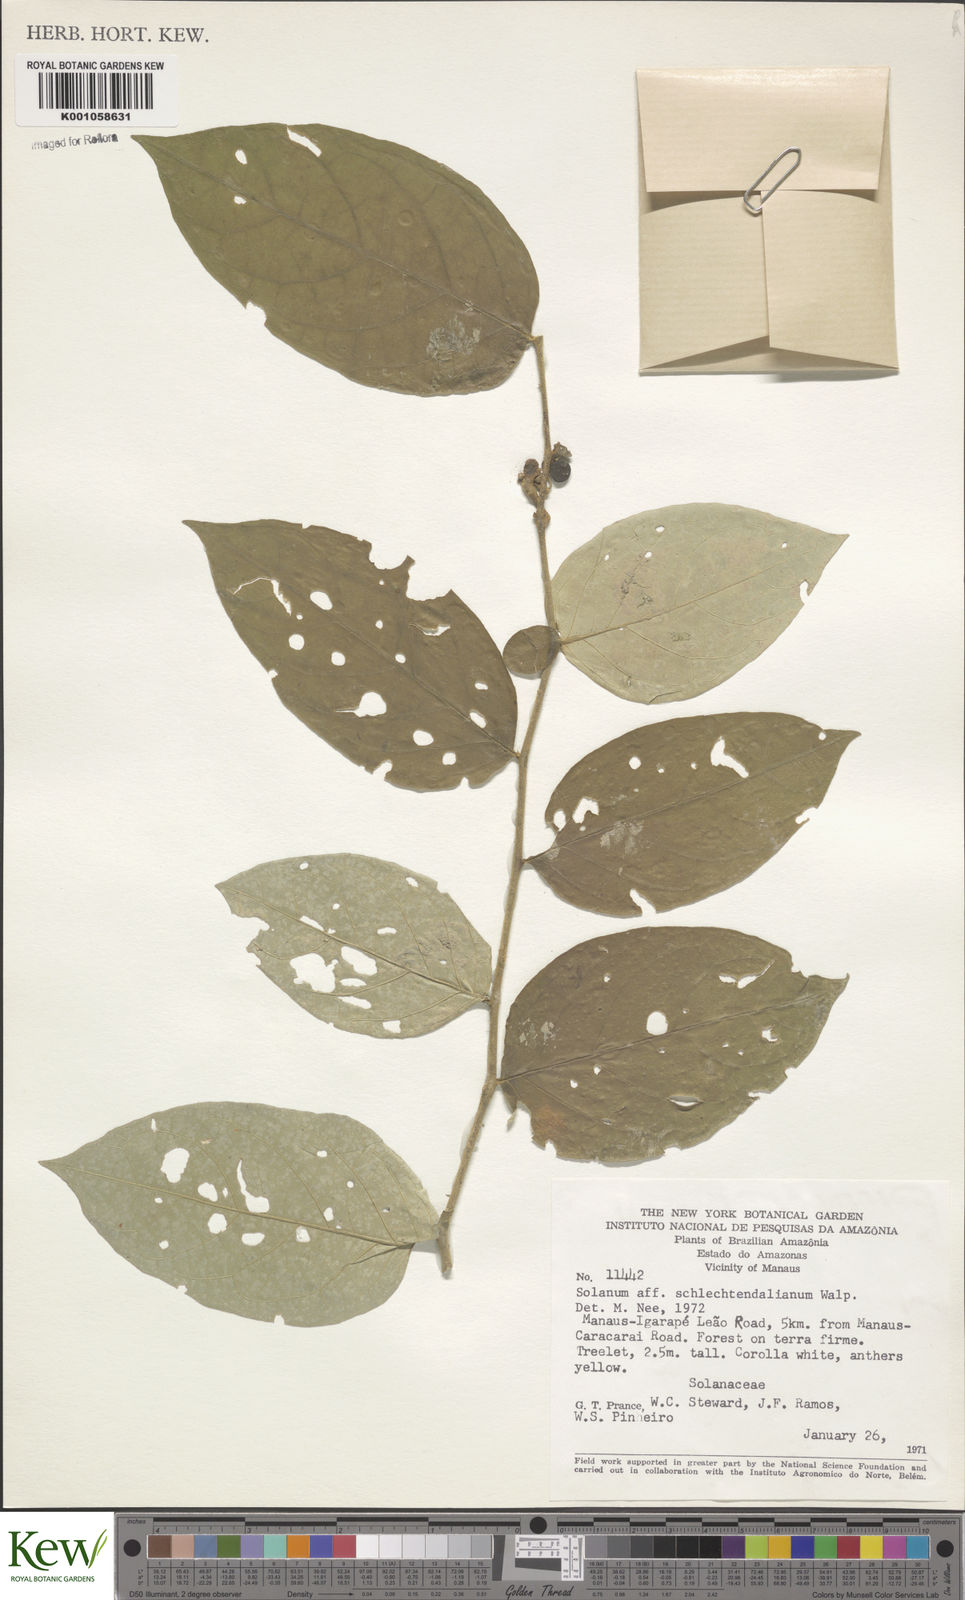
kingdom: Plantae
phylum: Tracheophyta
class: Magnoliopsida
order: Solanales
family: Solanaceae
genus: Solanum
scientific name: Solanum schlechtendalianum
